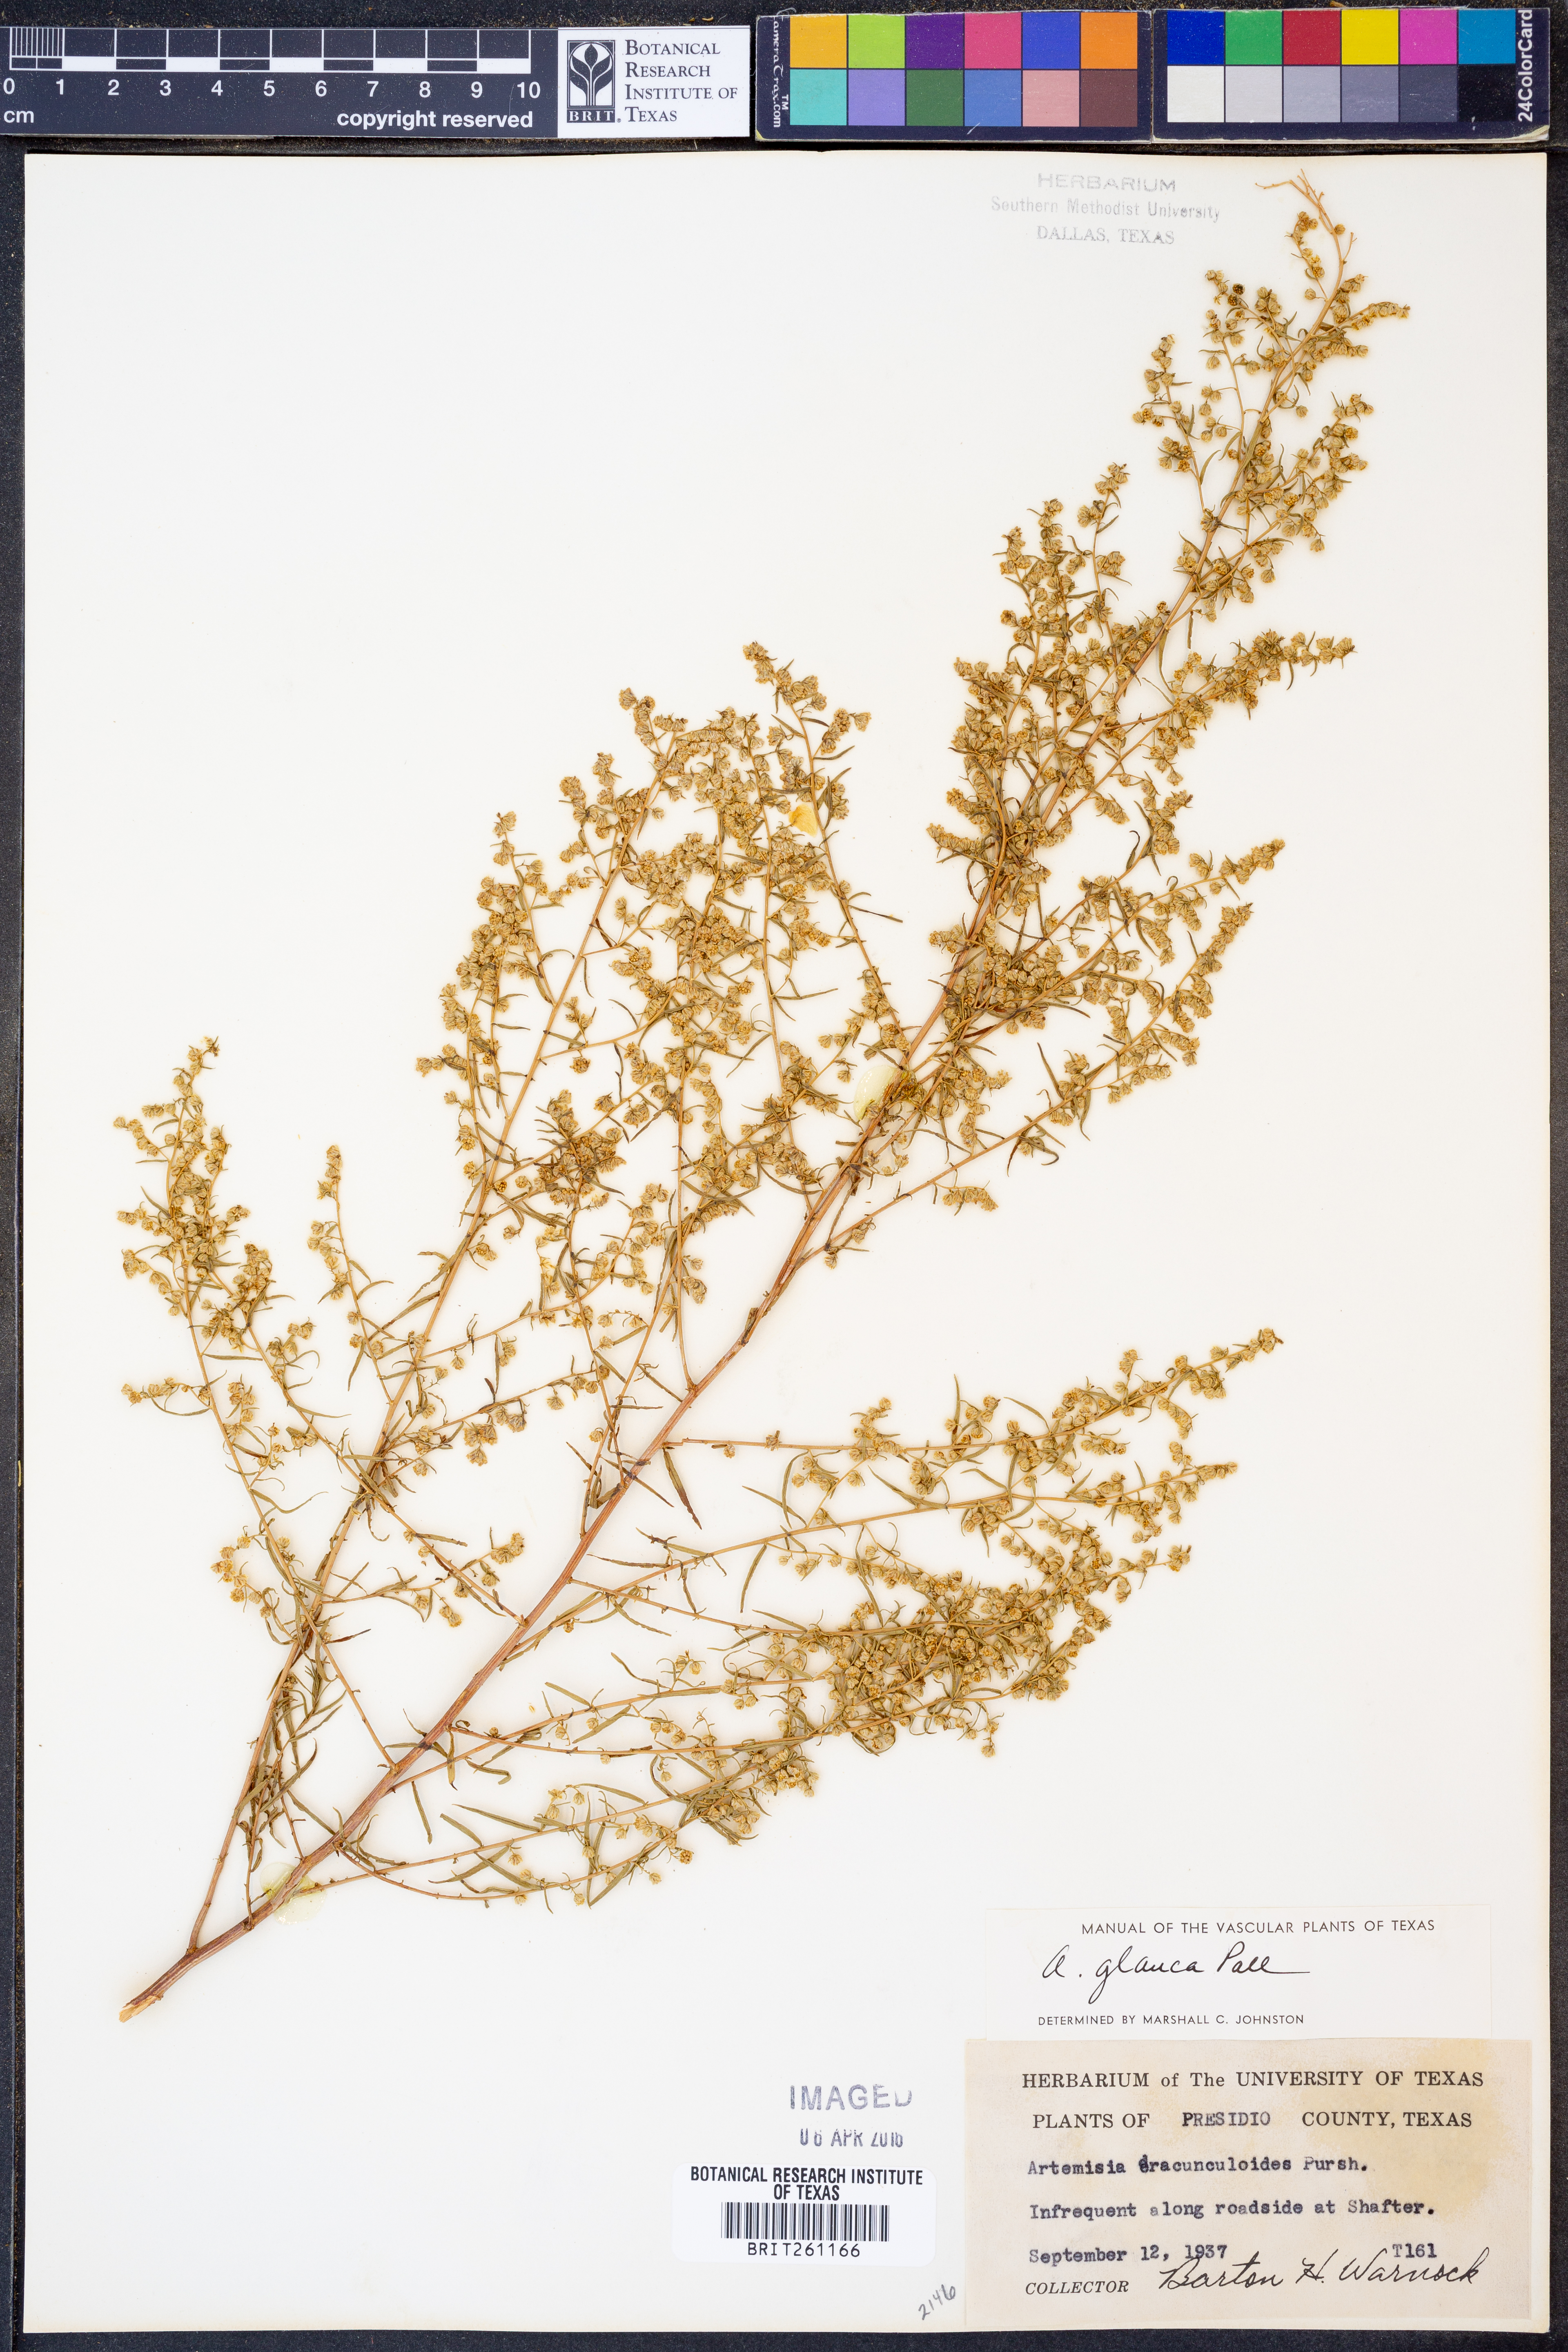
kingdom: Plantae
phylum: Tracheophyta
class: Magnoliopsida
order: Asterales
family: Asteraceae
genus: Artemisia
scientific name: Artemisia glauca
